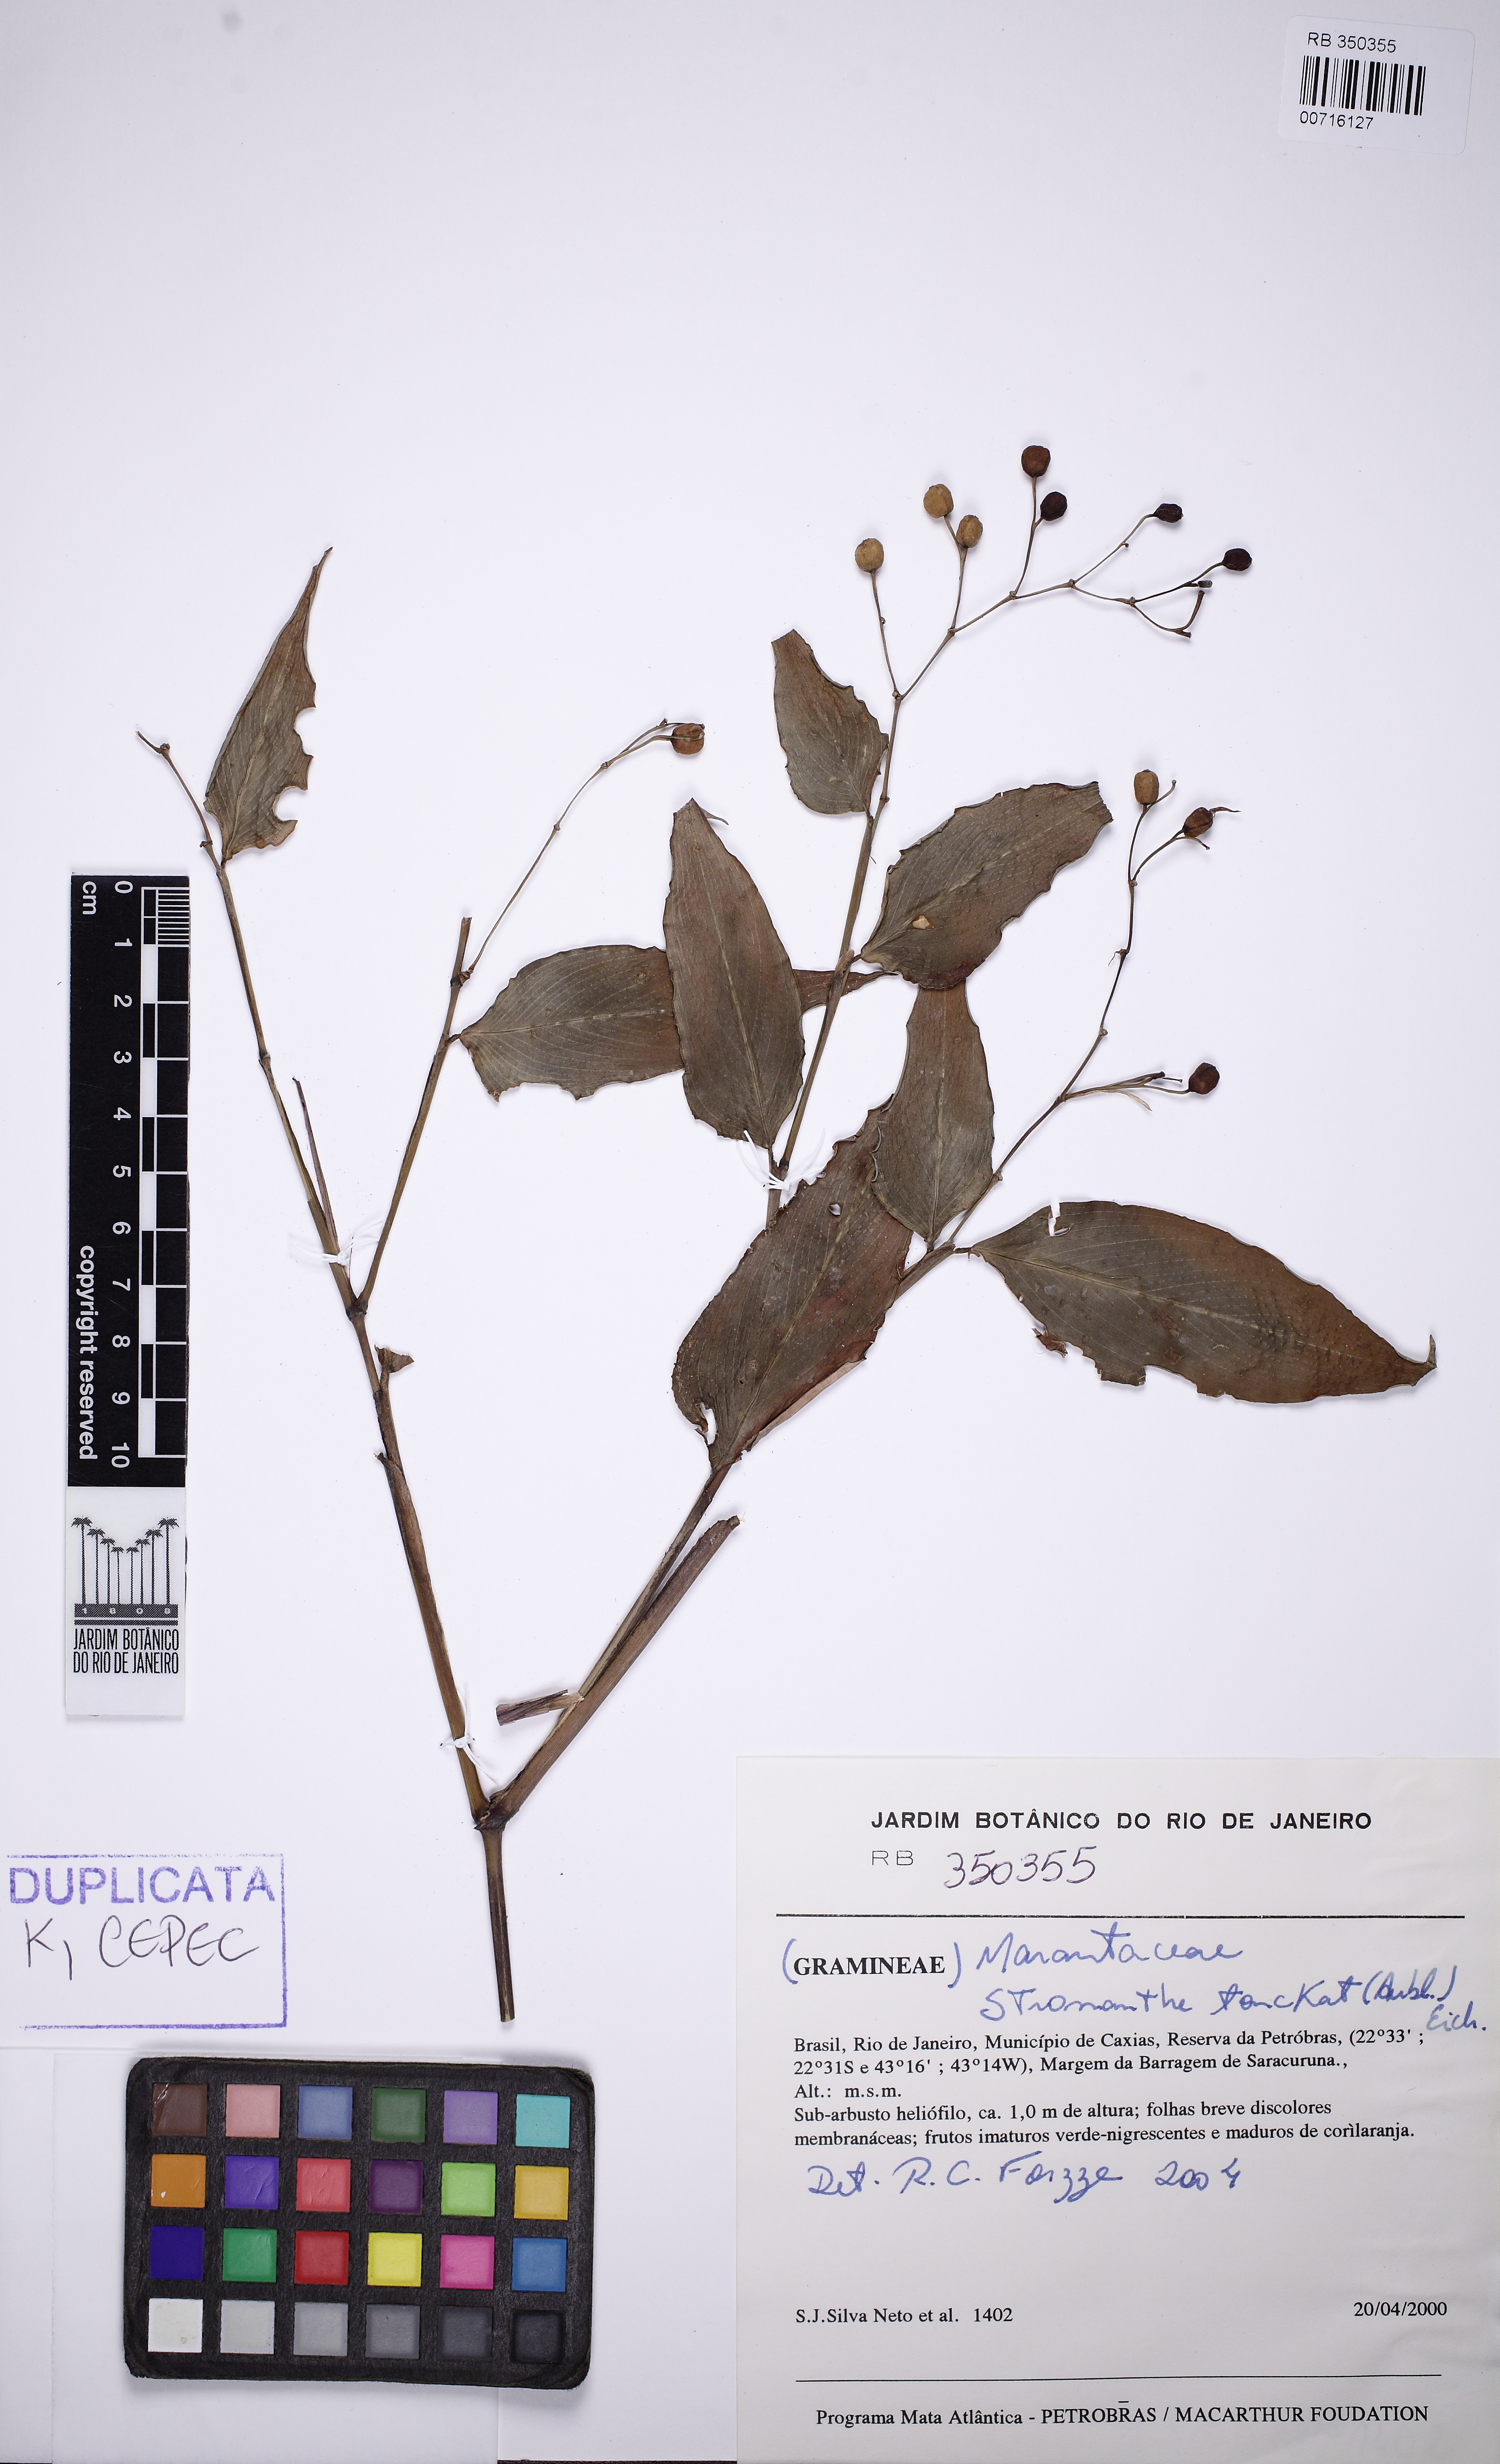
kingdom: Plantae
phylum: Tracheophyta
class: Liliopsida
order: Zingiberales
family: Marantaceae
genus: Stromanthe
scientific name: Stromanthe tonckat
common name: Stromanthe
